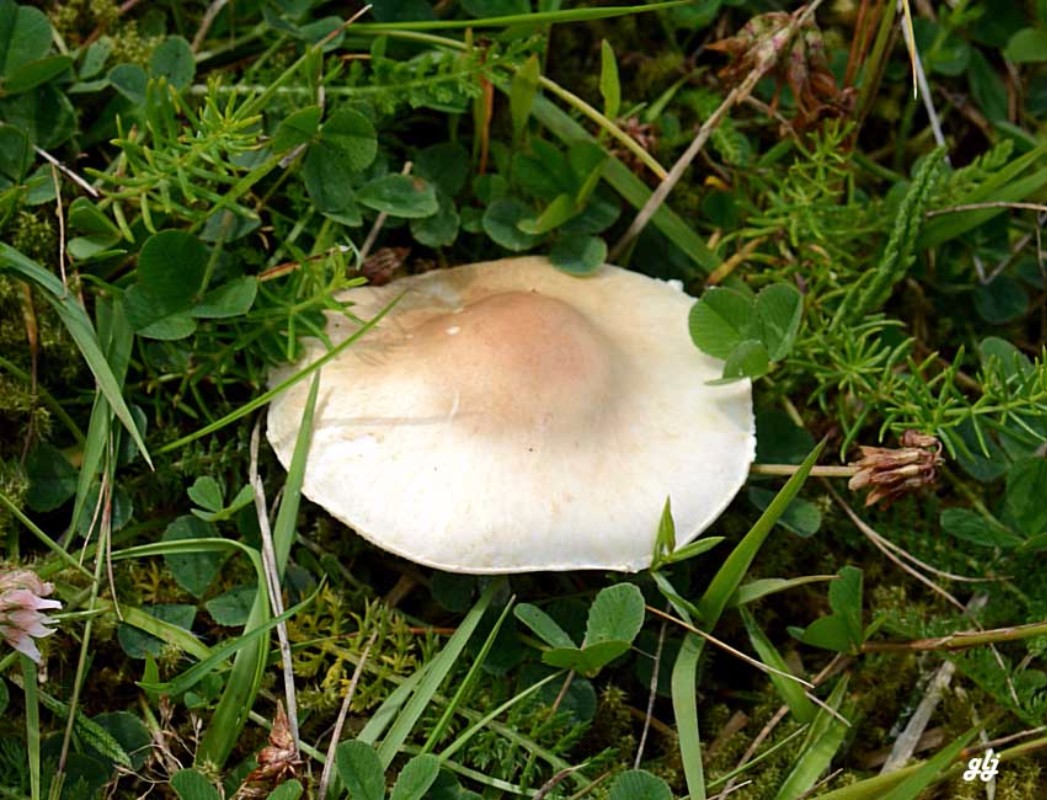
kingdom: Fungi
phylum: Basidiomycota
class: Agaricomycetes
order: Agaricales
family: Agaricaceae
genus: Lepiota
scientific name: Lepiota erminea
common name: hvid parasolhat
